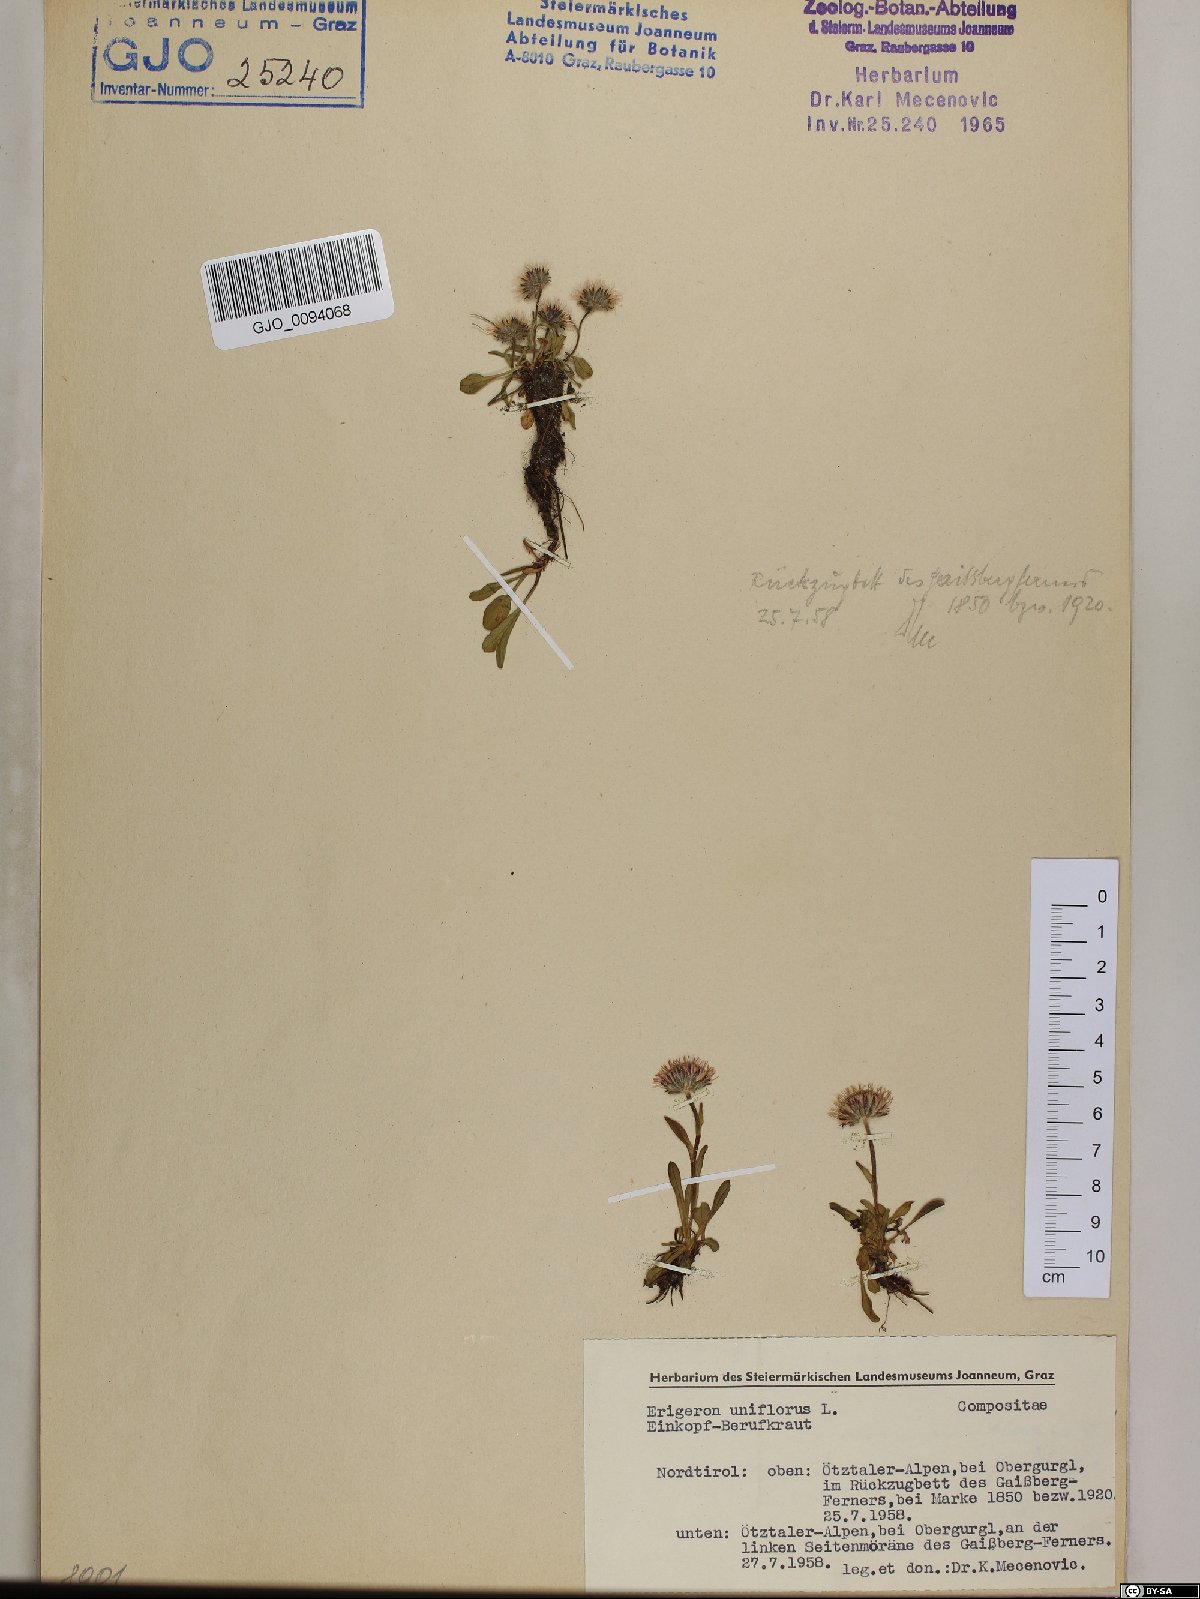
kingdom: Plantae
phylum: Tracheophyta
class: Magnoliopsida
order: Asterales
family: Asteraceae
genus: Erigeron
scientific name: Erigeron uniflorus
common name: Northern daisy
